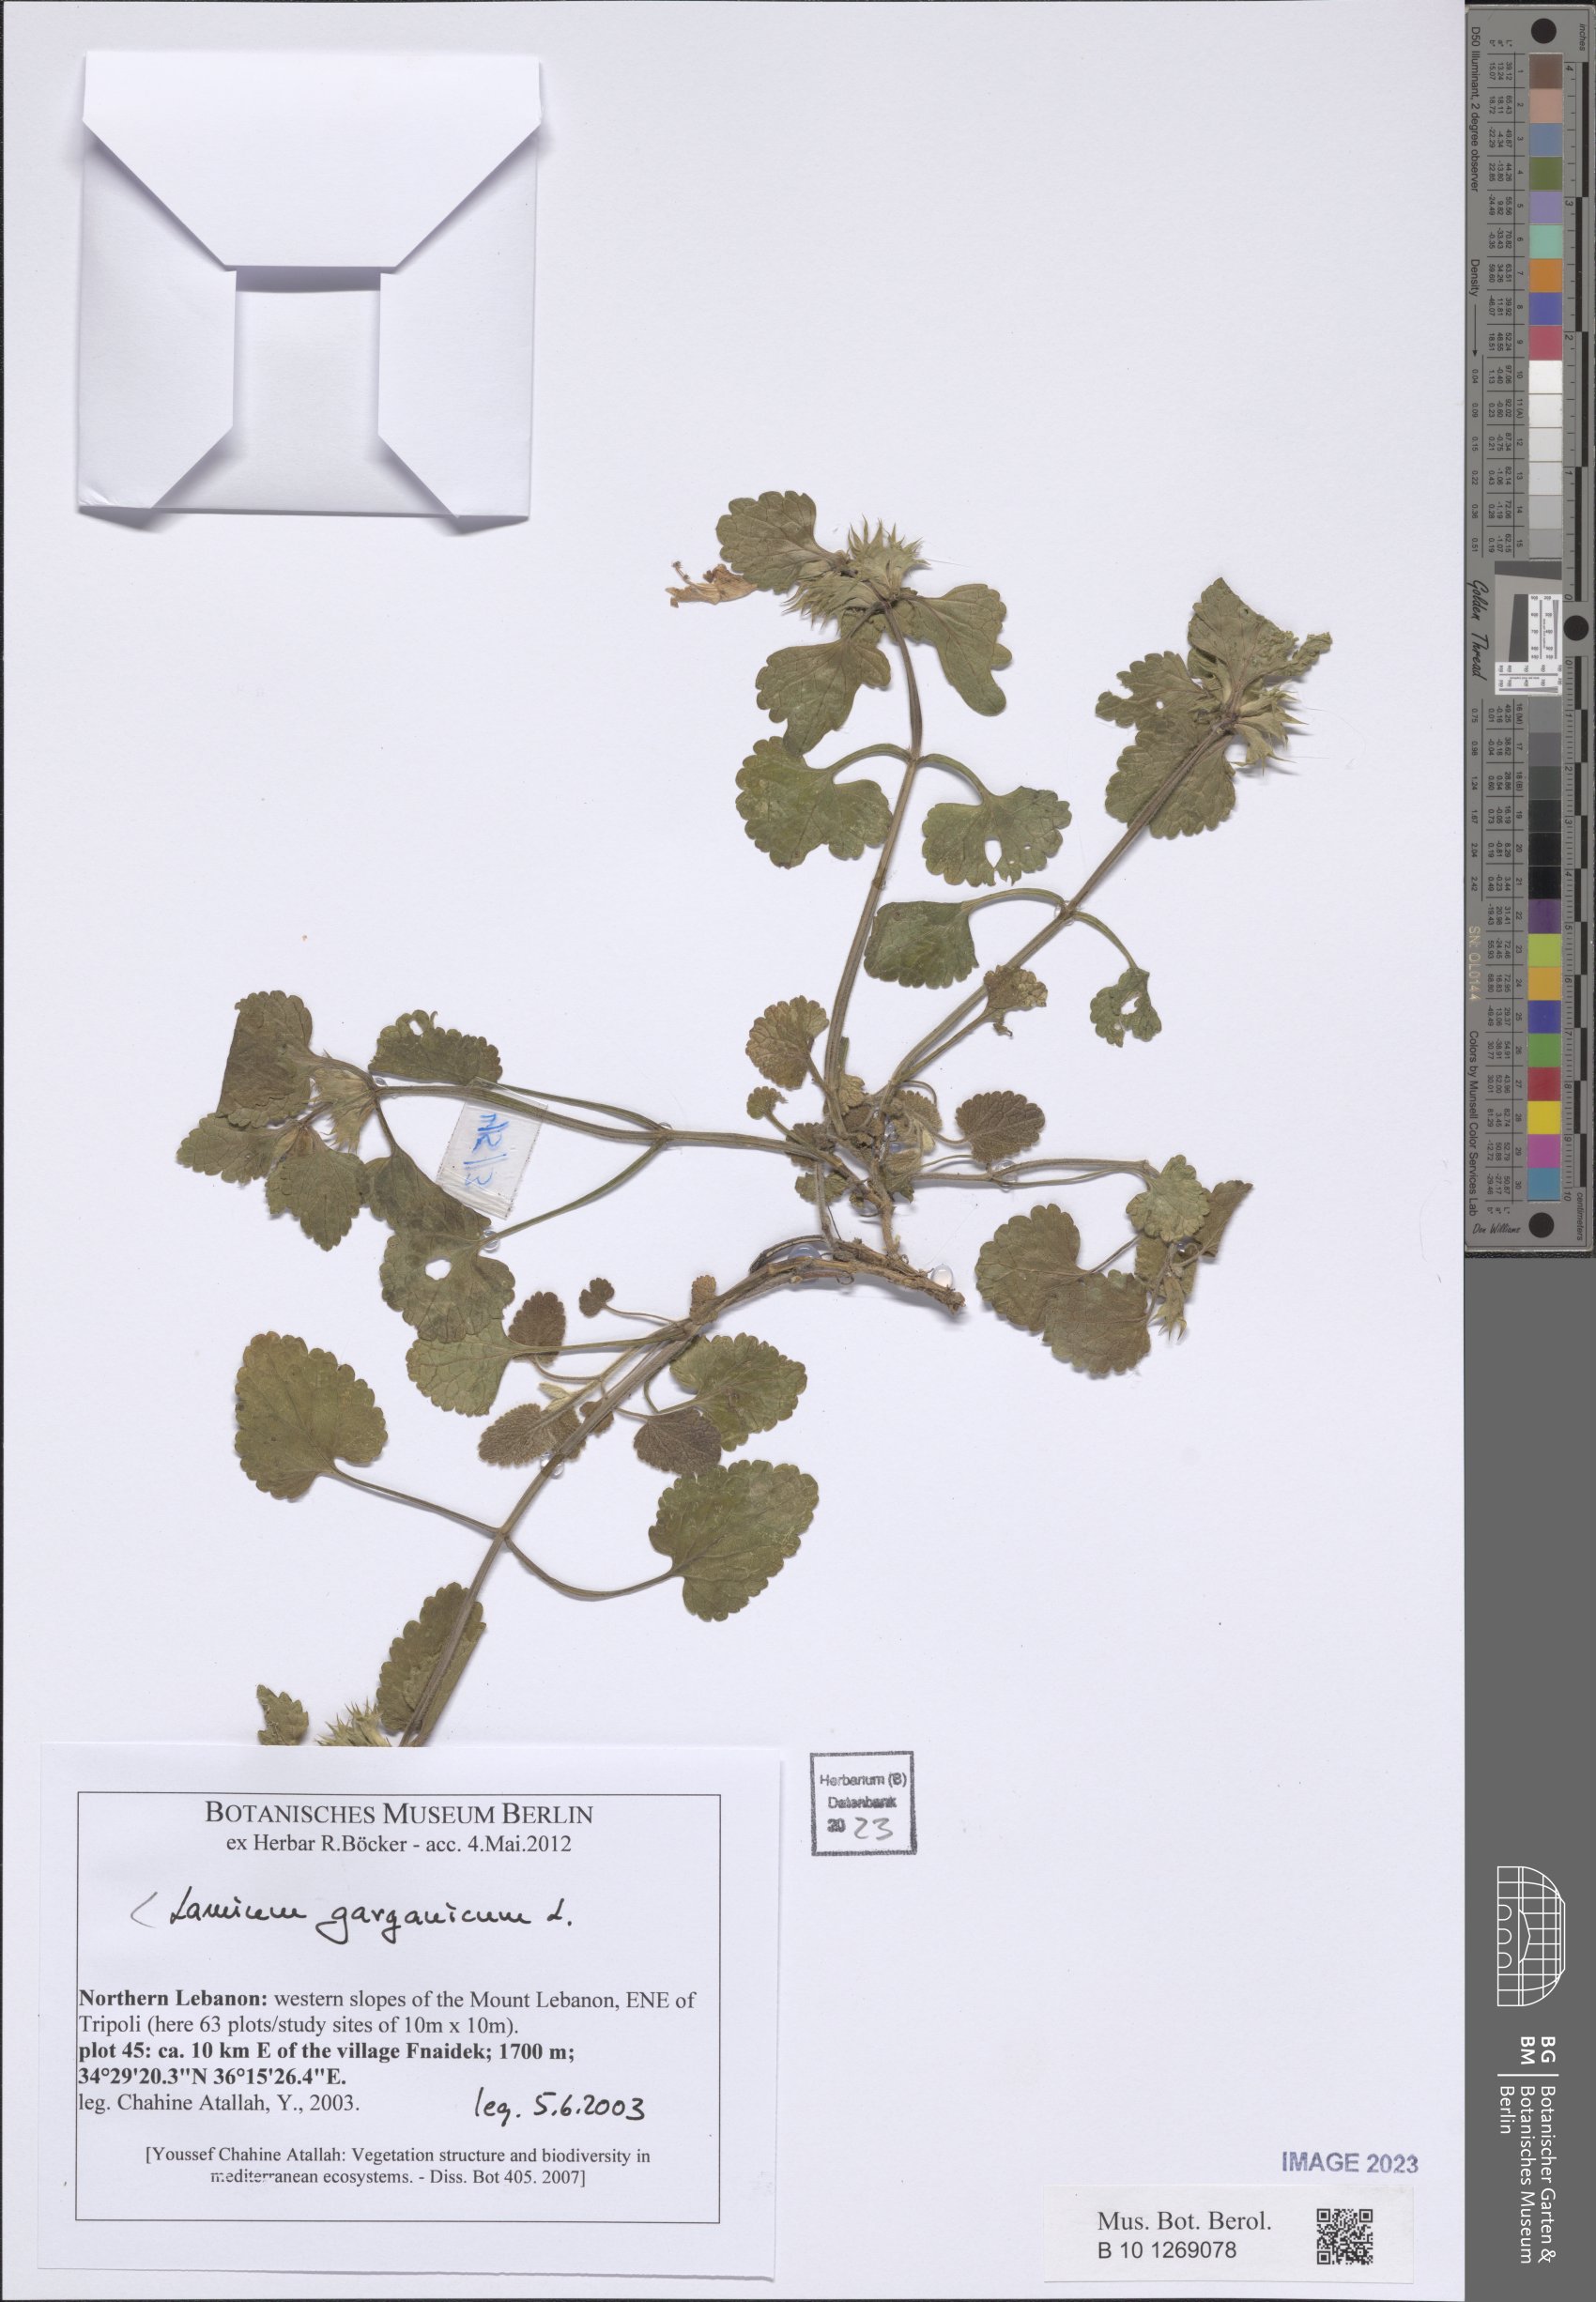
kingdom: Plantae
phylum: Tracheophyta
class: Magnoliopsida
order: Lamiales
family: Lamiaceae
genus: Lamium
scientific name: Lamium garganicum
